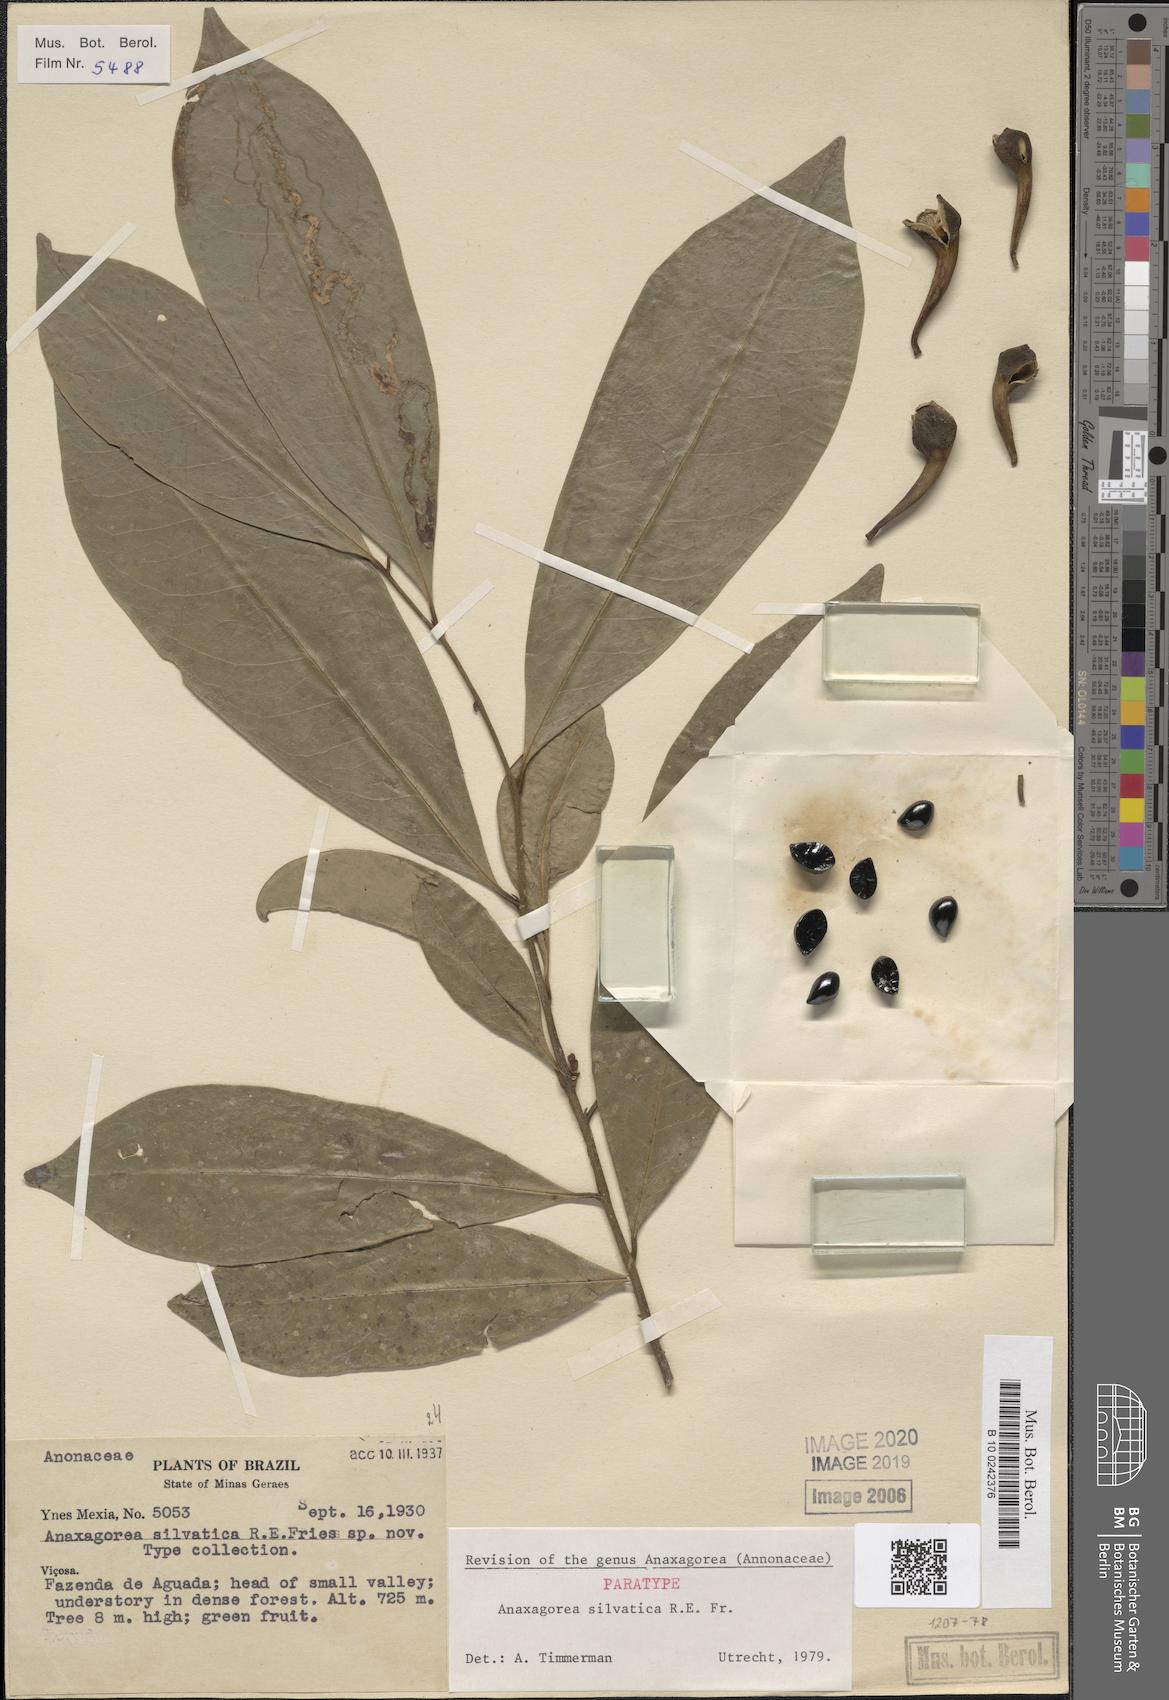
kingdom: Plantae
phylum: Tracheophyta
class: Magnoliopsida
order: Magnoliales
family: Annonaceae
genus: Anaxagorea
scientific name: Anaxagorea silvatica
